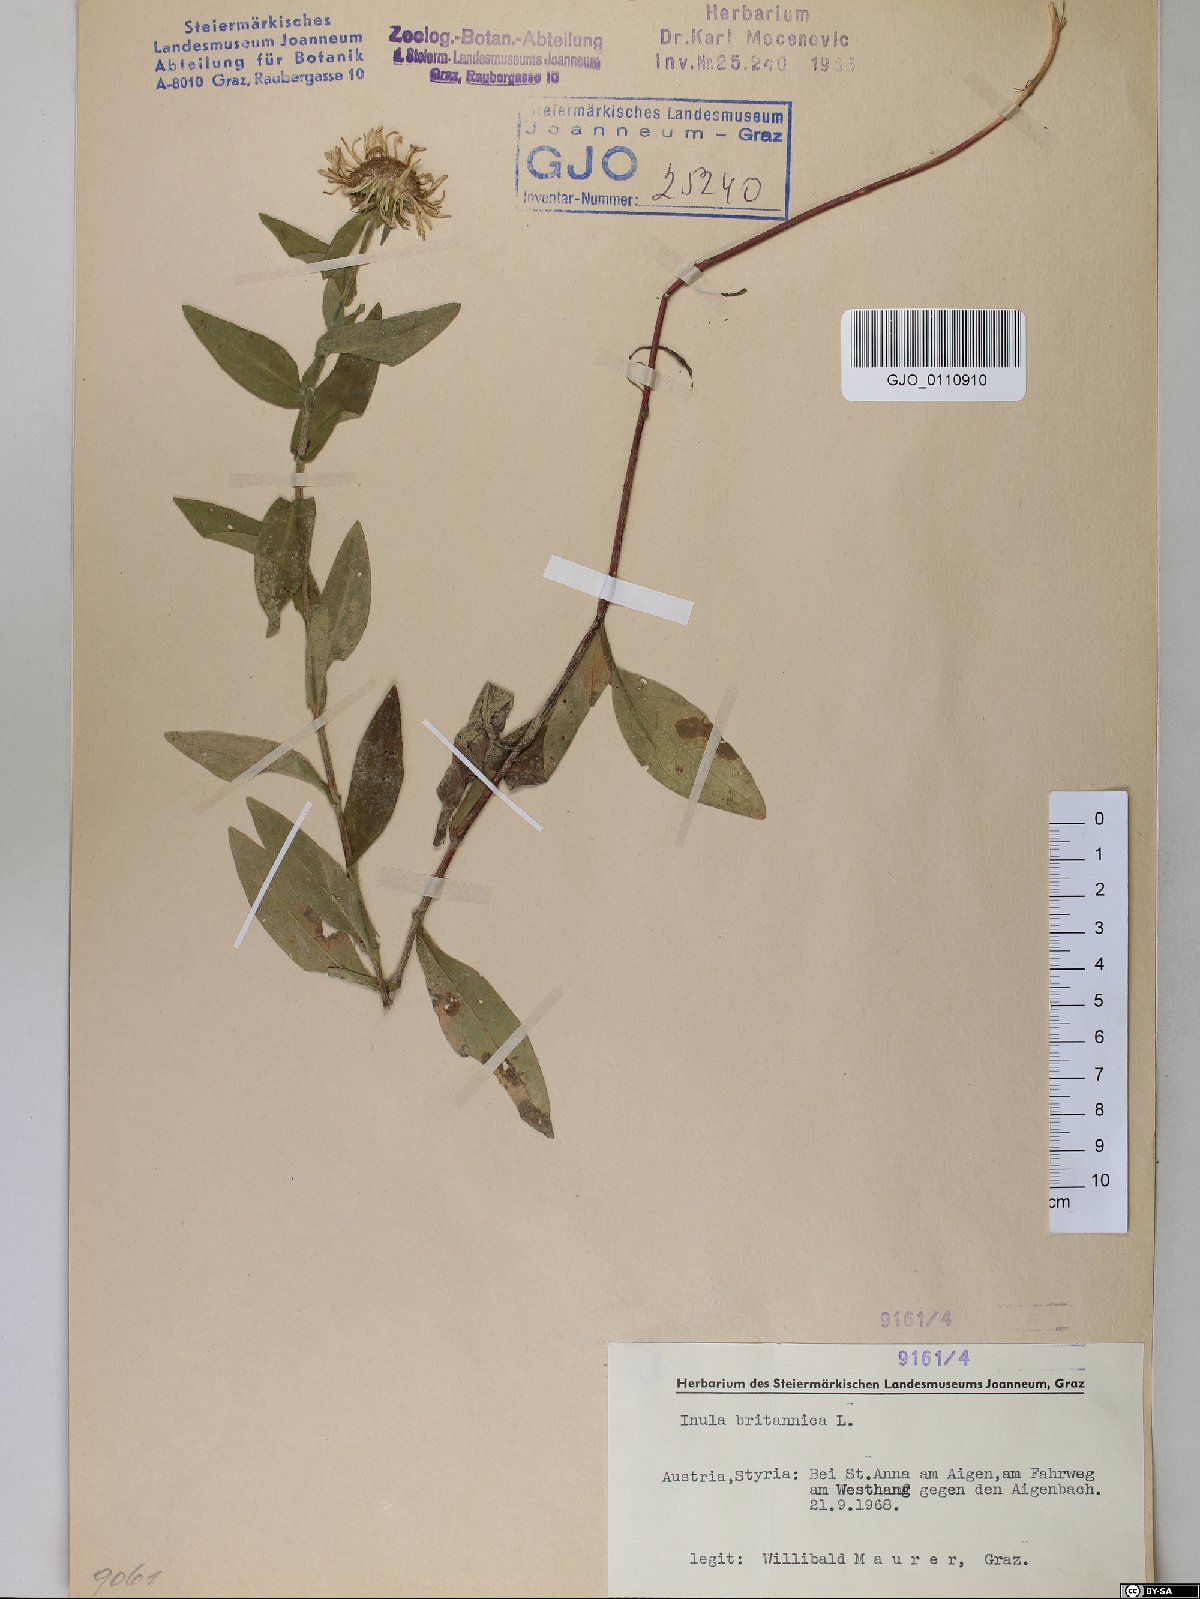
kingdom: Plantae
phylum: Tracheophyta
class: Magnoliopsida
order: Asterales
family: Asteraceae
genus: Pentanema
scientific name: Pentanema britannicum
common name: British elecampane
